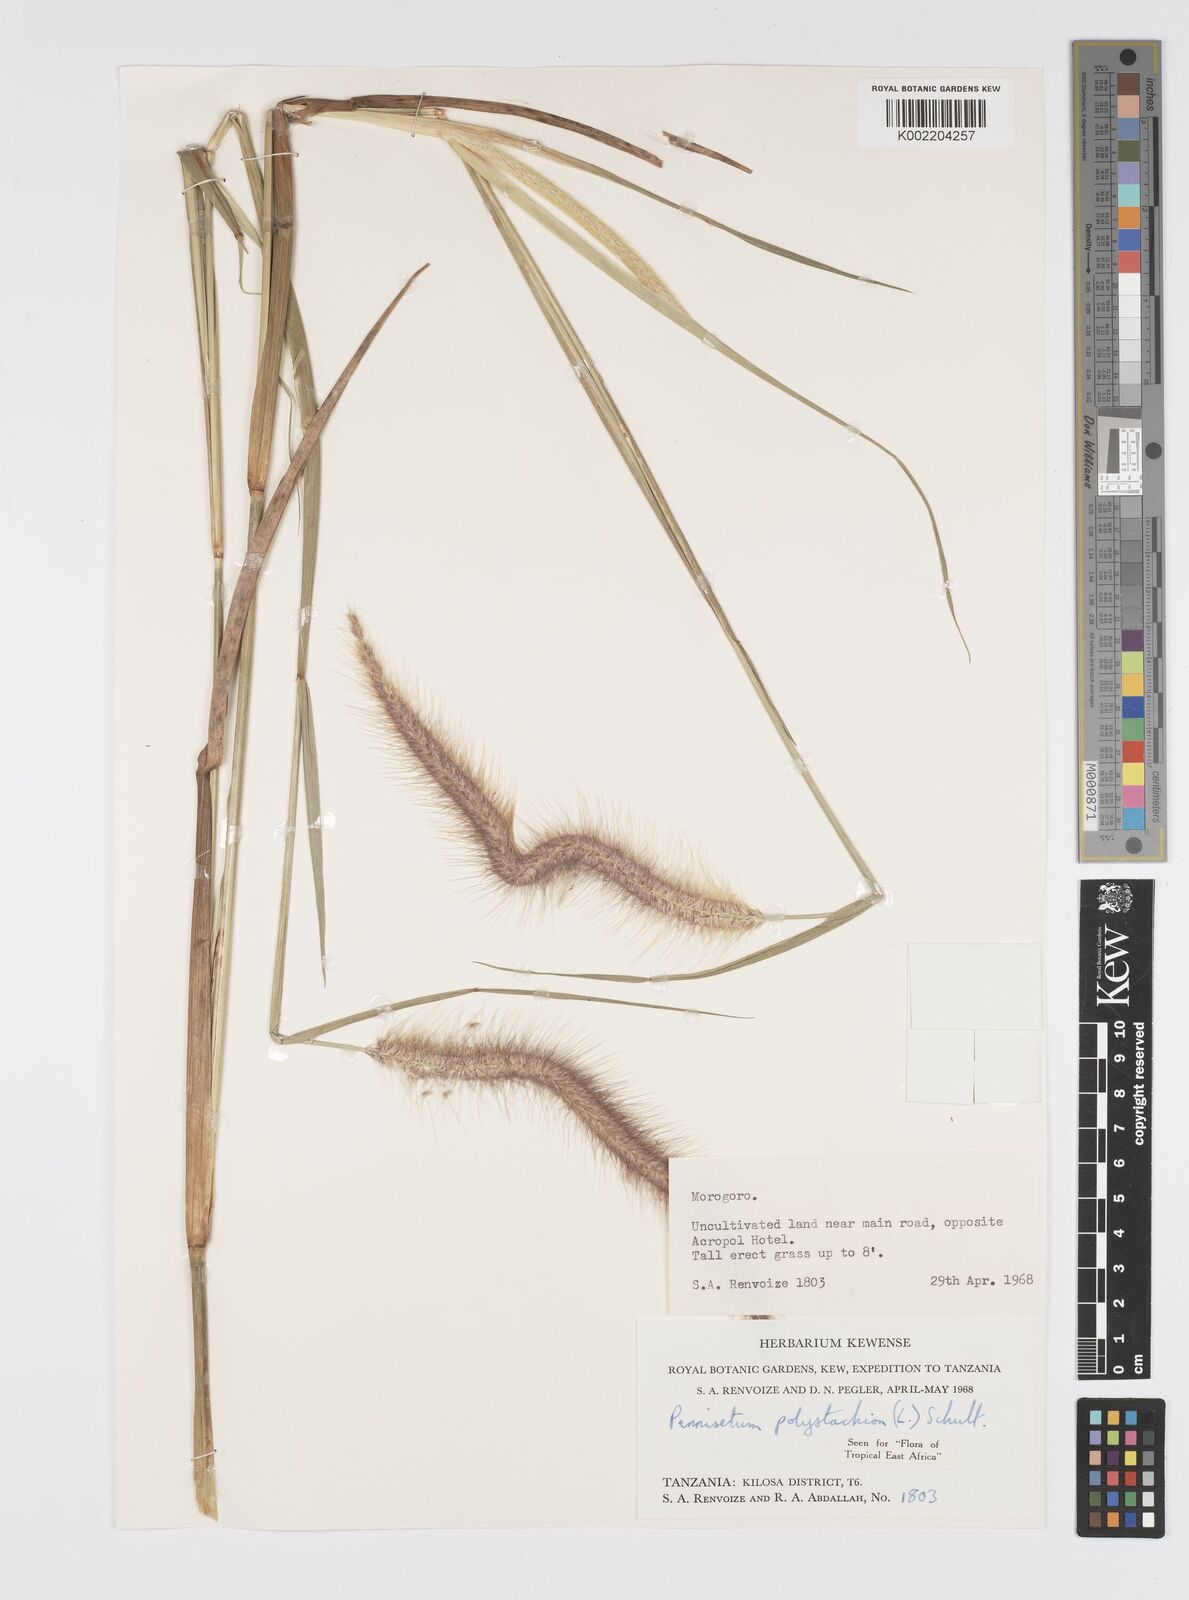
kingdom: Plantae
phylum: Tracheophyta
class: Liliopsida
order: Poales
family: Poaceae
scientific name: Poaceae
